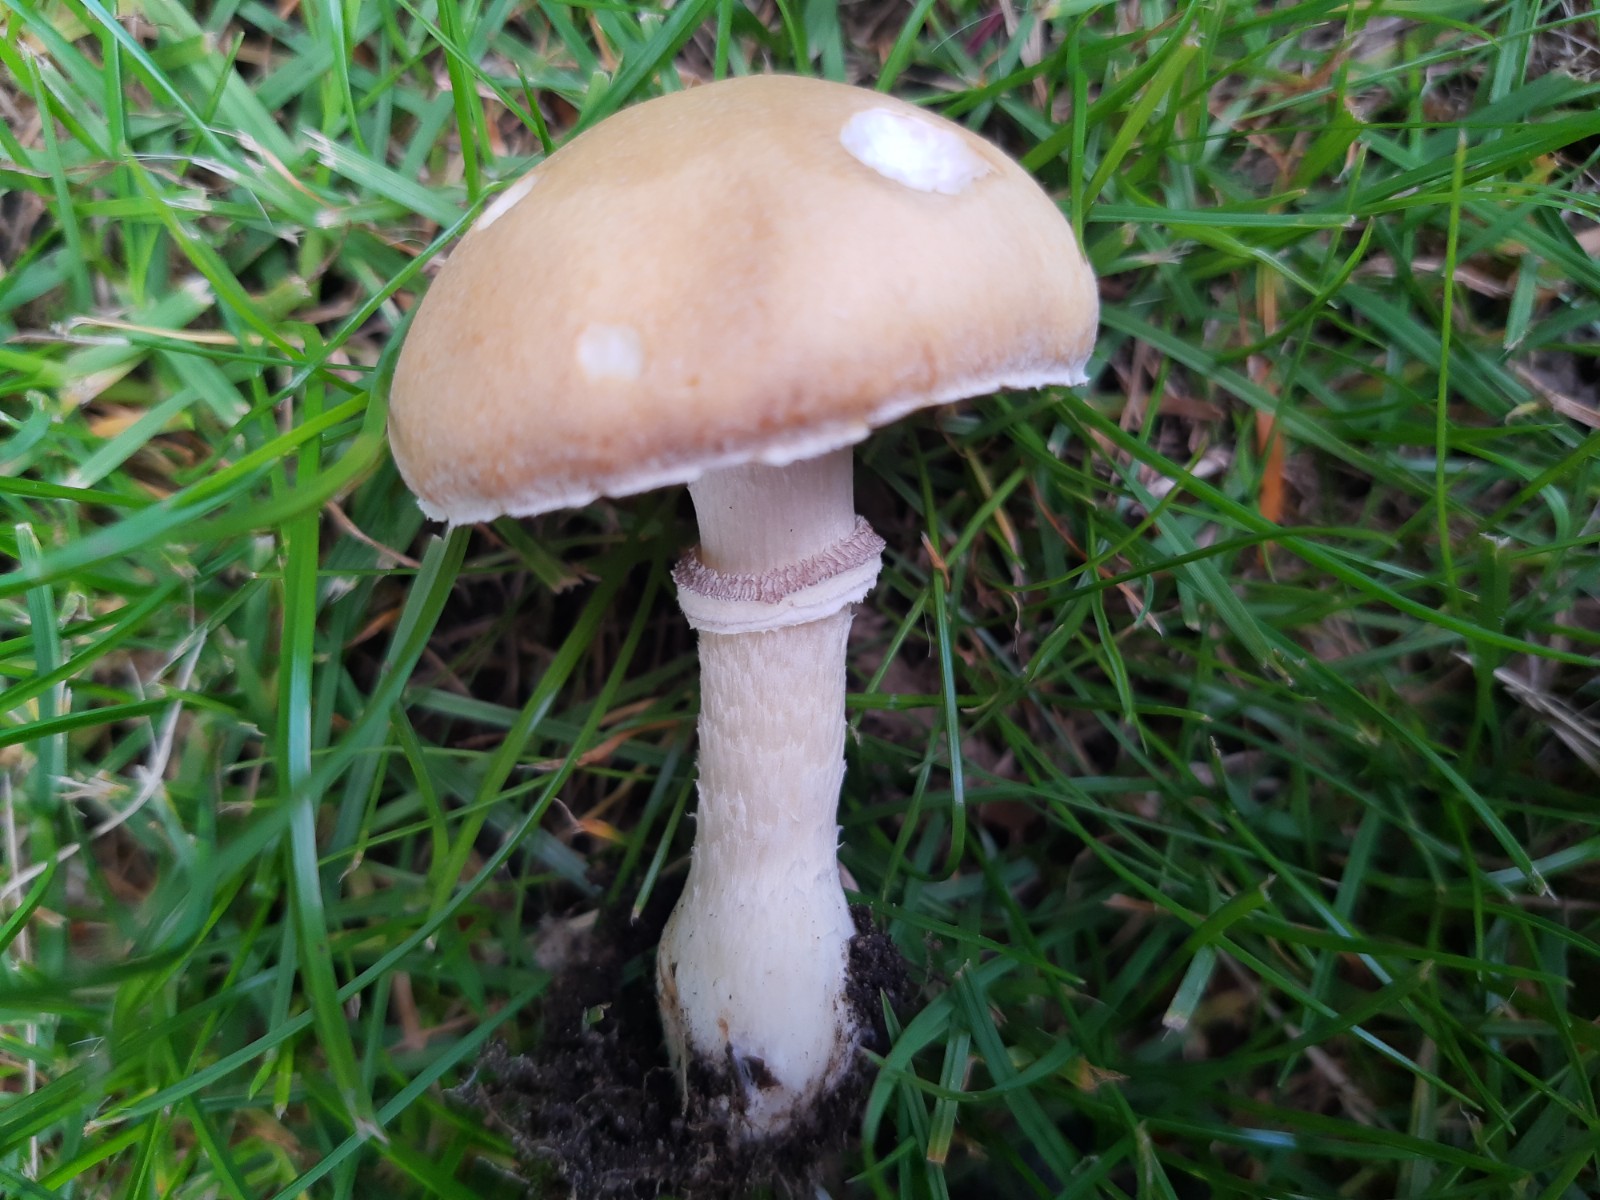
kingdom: Fungi
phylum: Basidiomycota
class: Agaricomycetes
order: Agaricales
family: Hymenogastraceae
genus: Psilocybe
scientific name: Psilocybe coronilla
